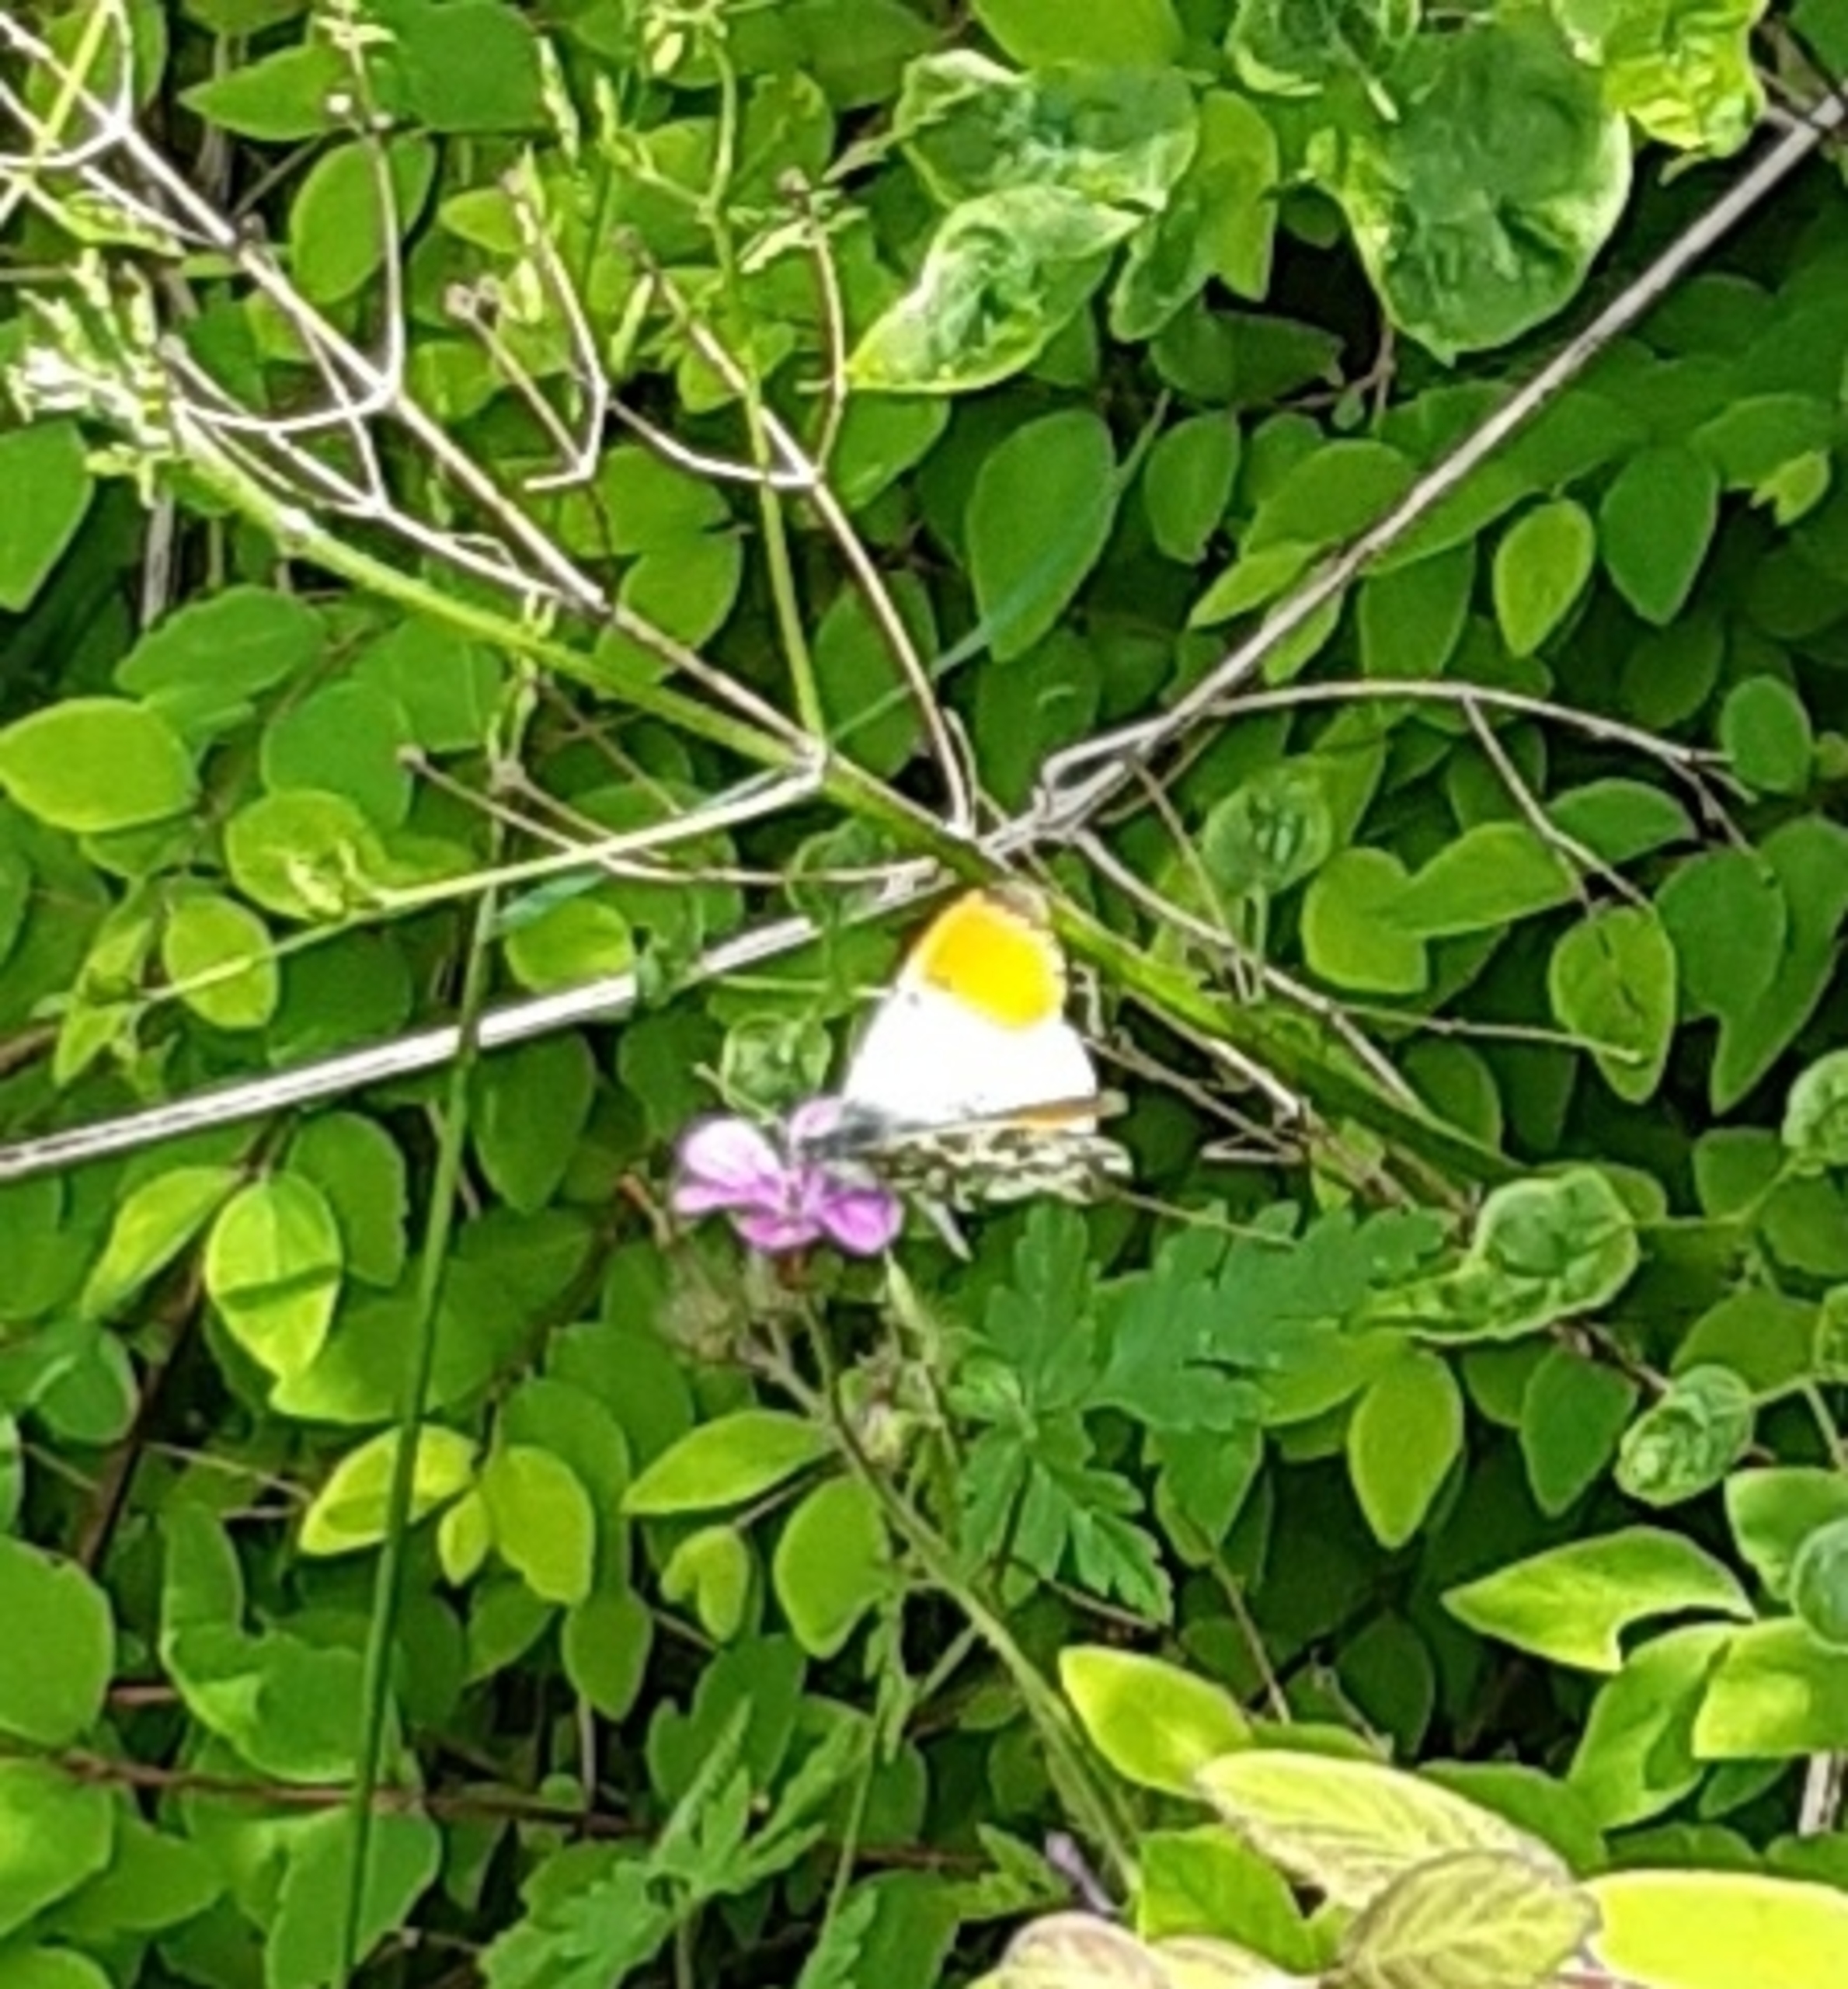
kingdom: Animalia
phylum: Arthropoda
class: Insecta
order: Lepidoptera
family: Pieridae
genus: Anthocharis
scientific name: Anthocharis cardamines
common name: Aurora
